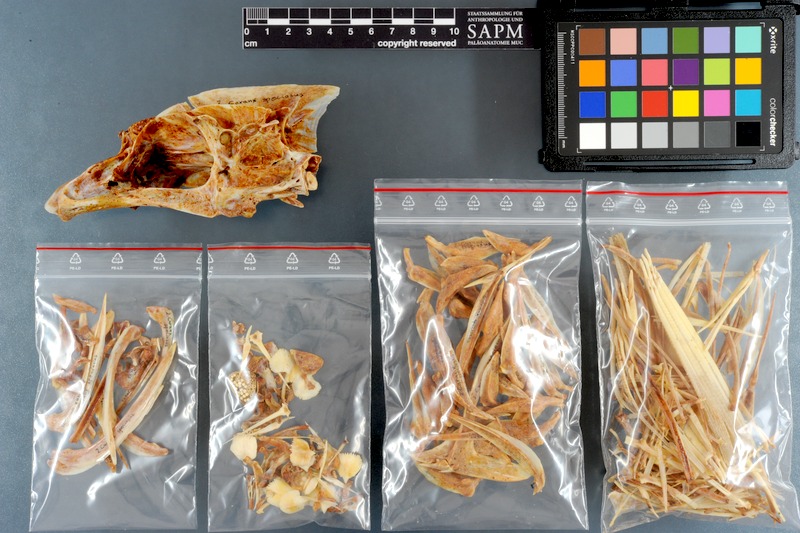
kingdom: Animalia
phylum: Chordata
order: Perciformes
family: Carangidae
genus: Gnathanodon
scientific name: Gnathanodon speciosus
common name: Golden toothless trevally
